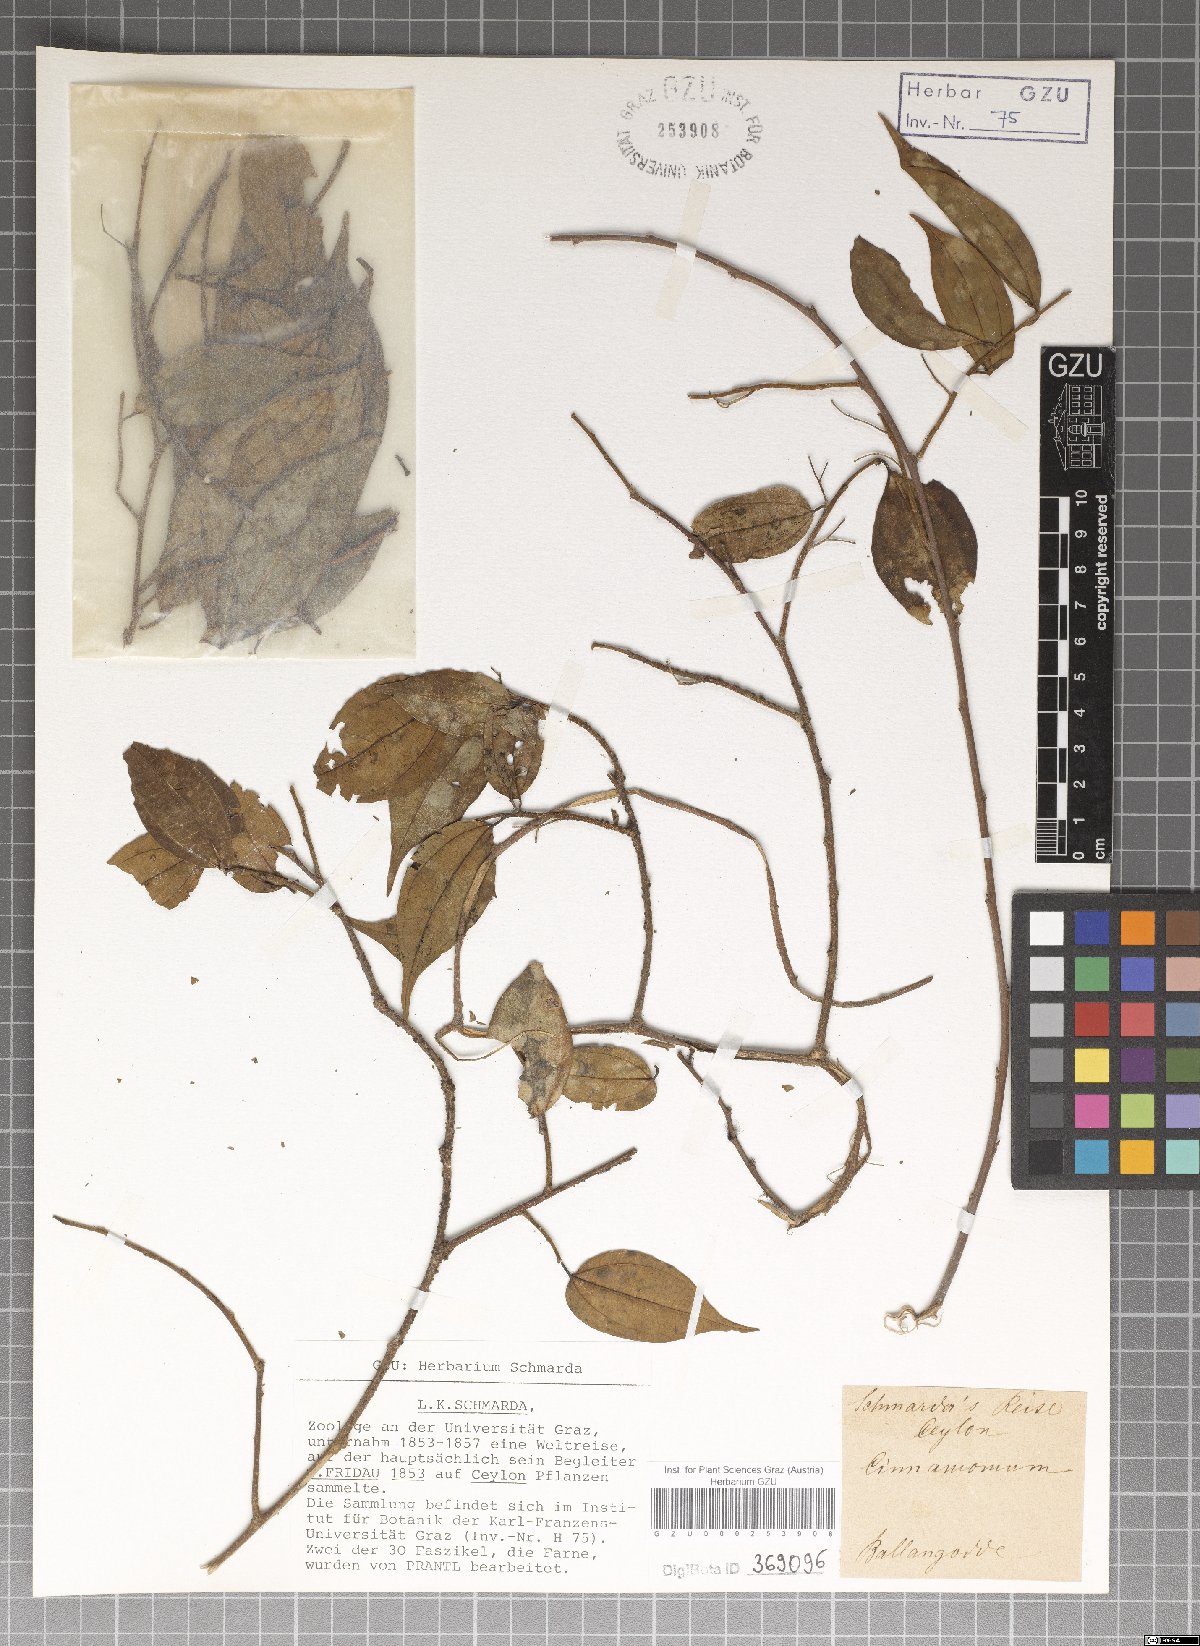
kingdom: Plantae
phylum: Tracheophyta
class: Magnoliopsida
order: Laurales
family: Lauraceae
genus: Cinnamomum
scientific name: Cinnamomum
